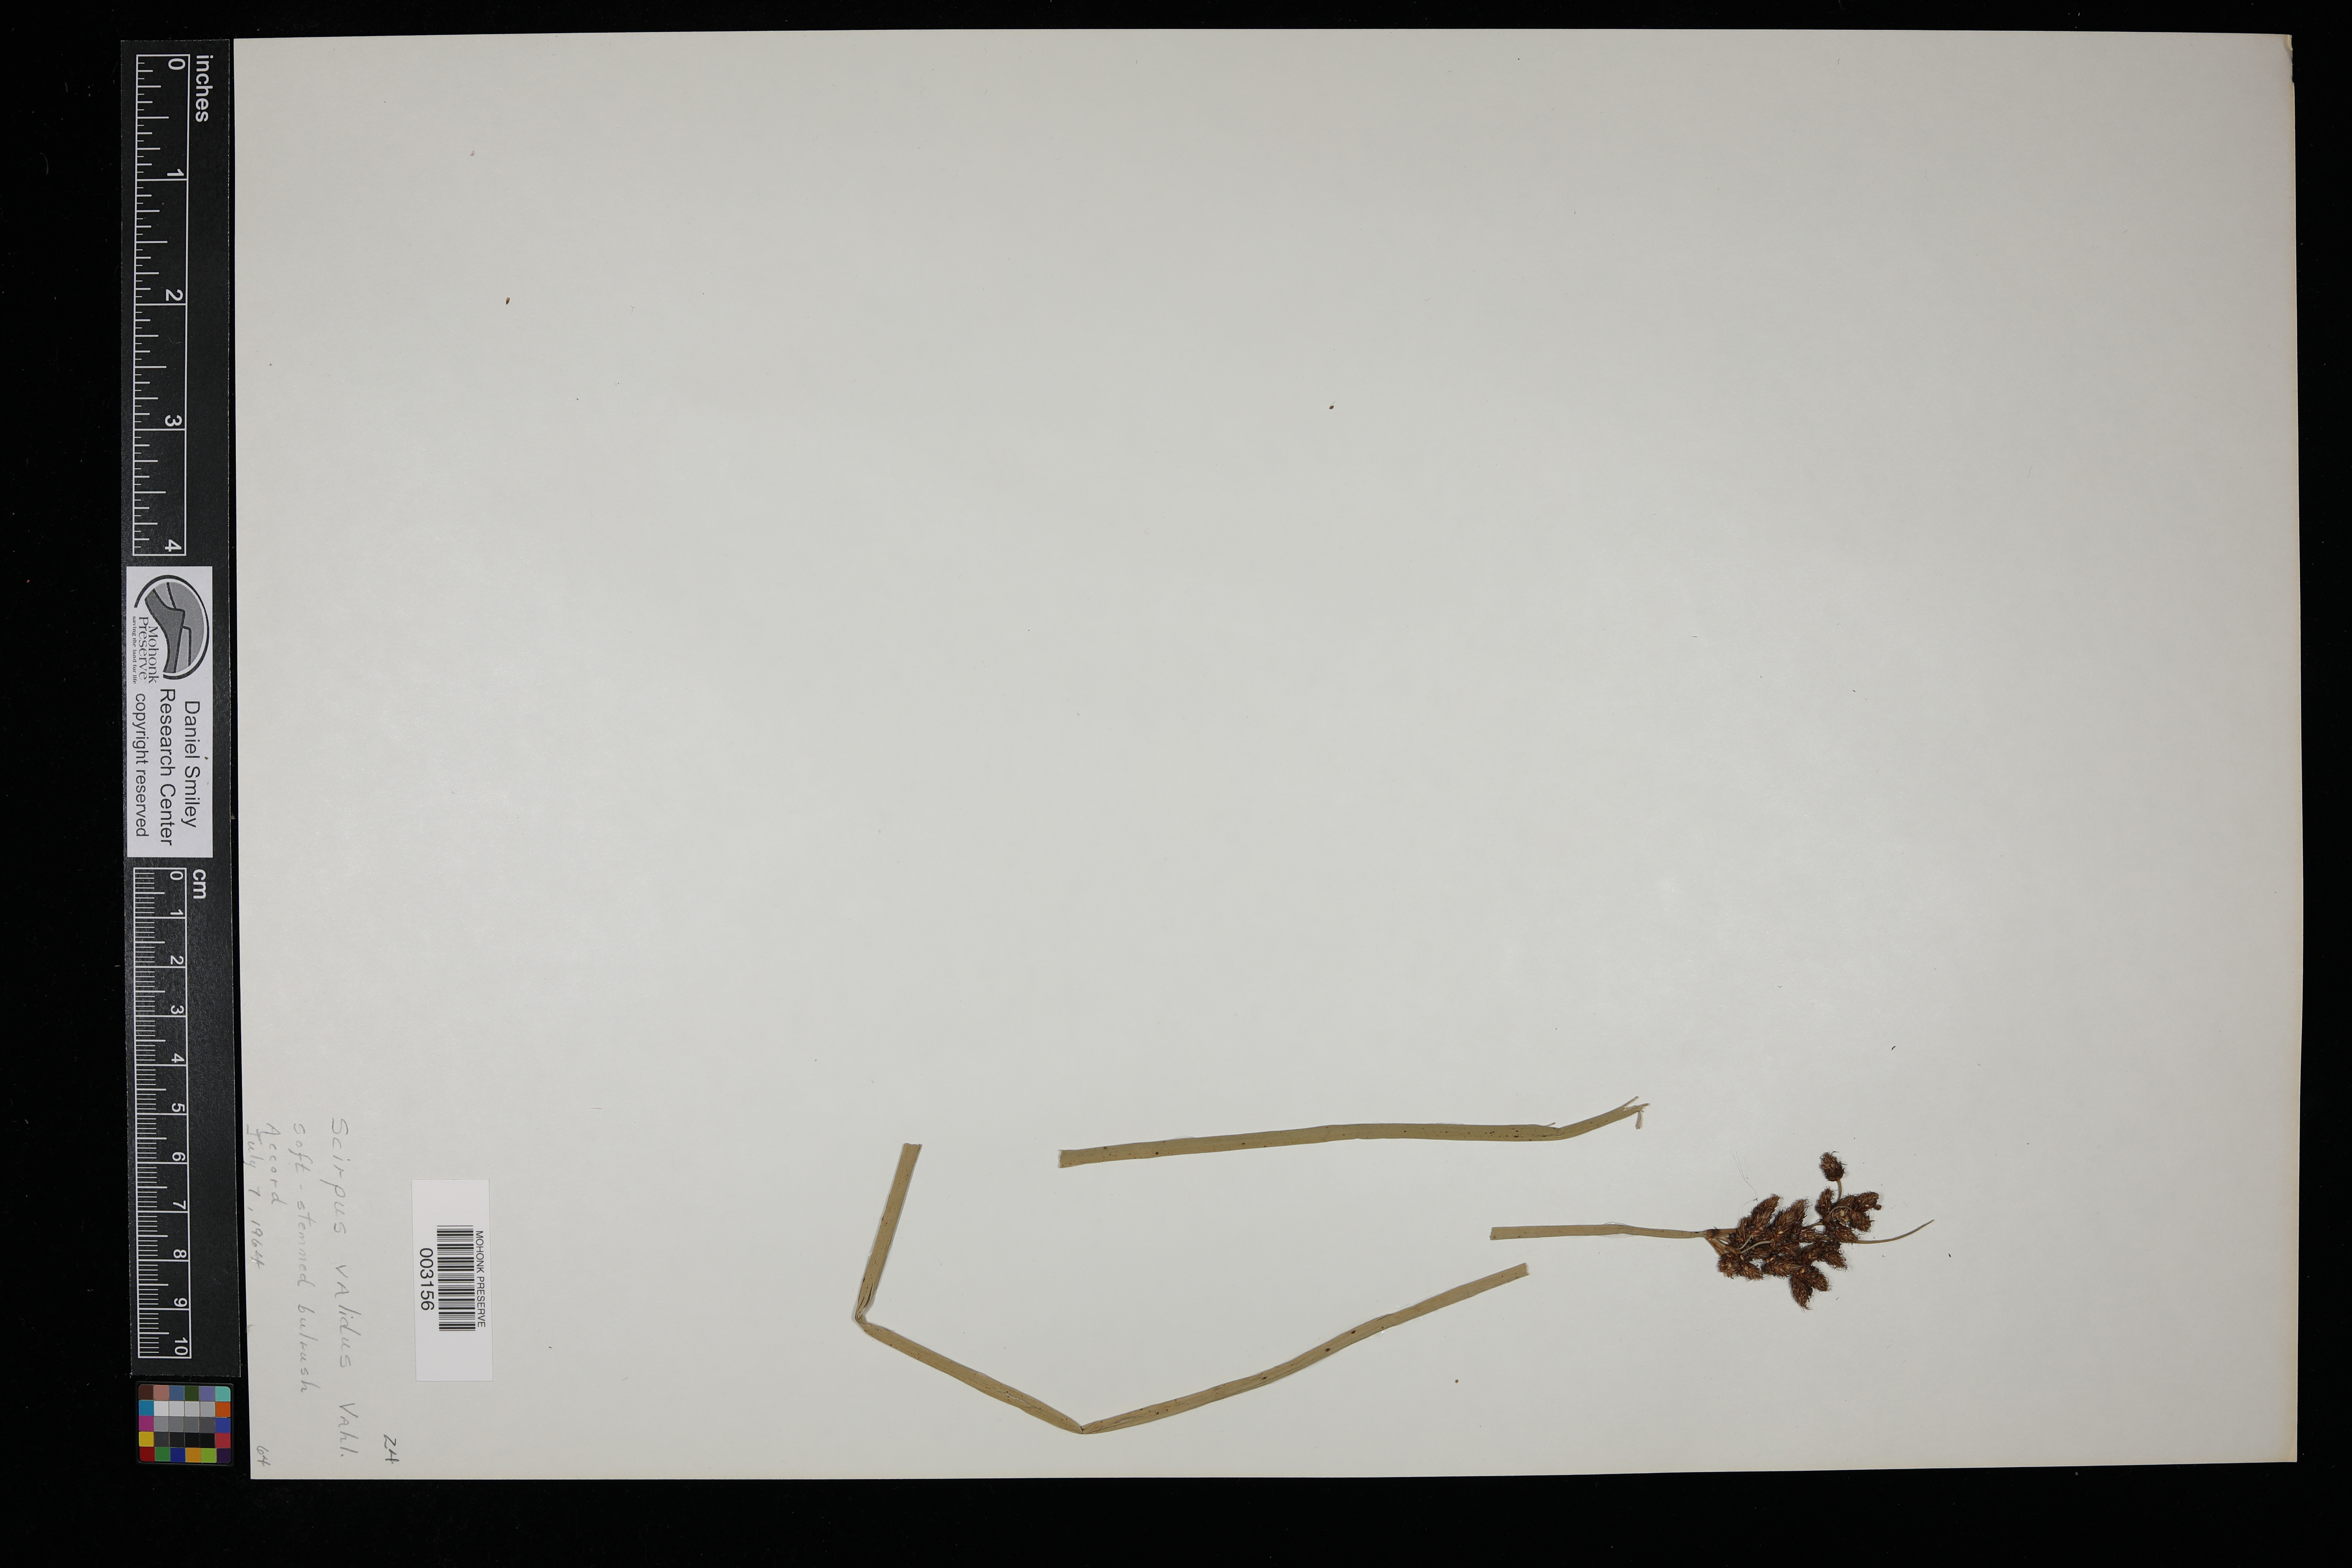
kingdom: Plantae
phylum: Tracheophyta
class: Liliopsida
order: Poales
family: Cyperaceae
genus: Eleocharis
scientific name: Eleocharis geniculata
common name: Canada spikesedge
